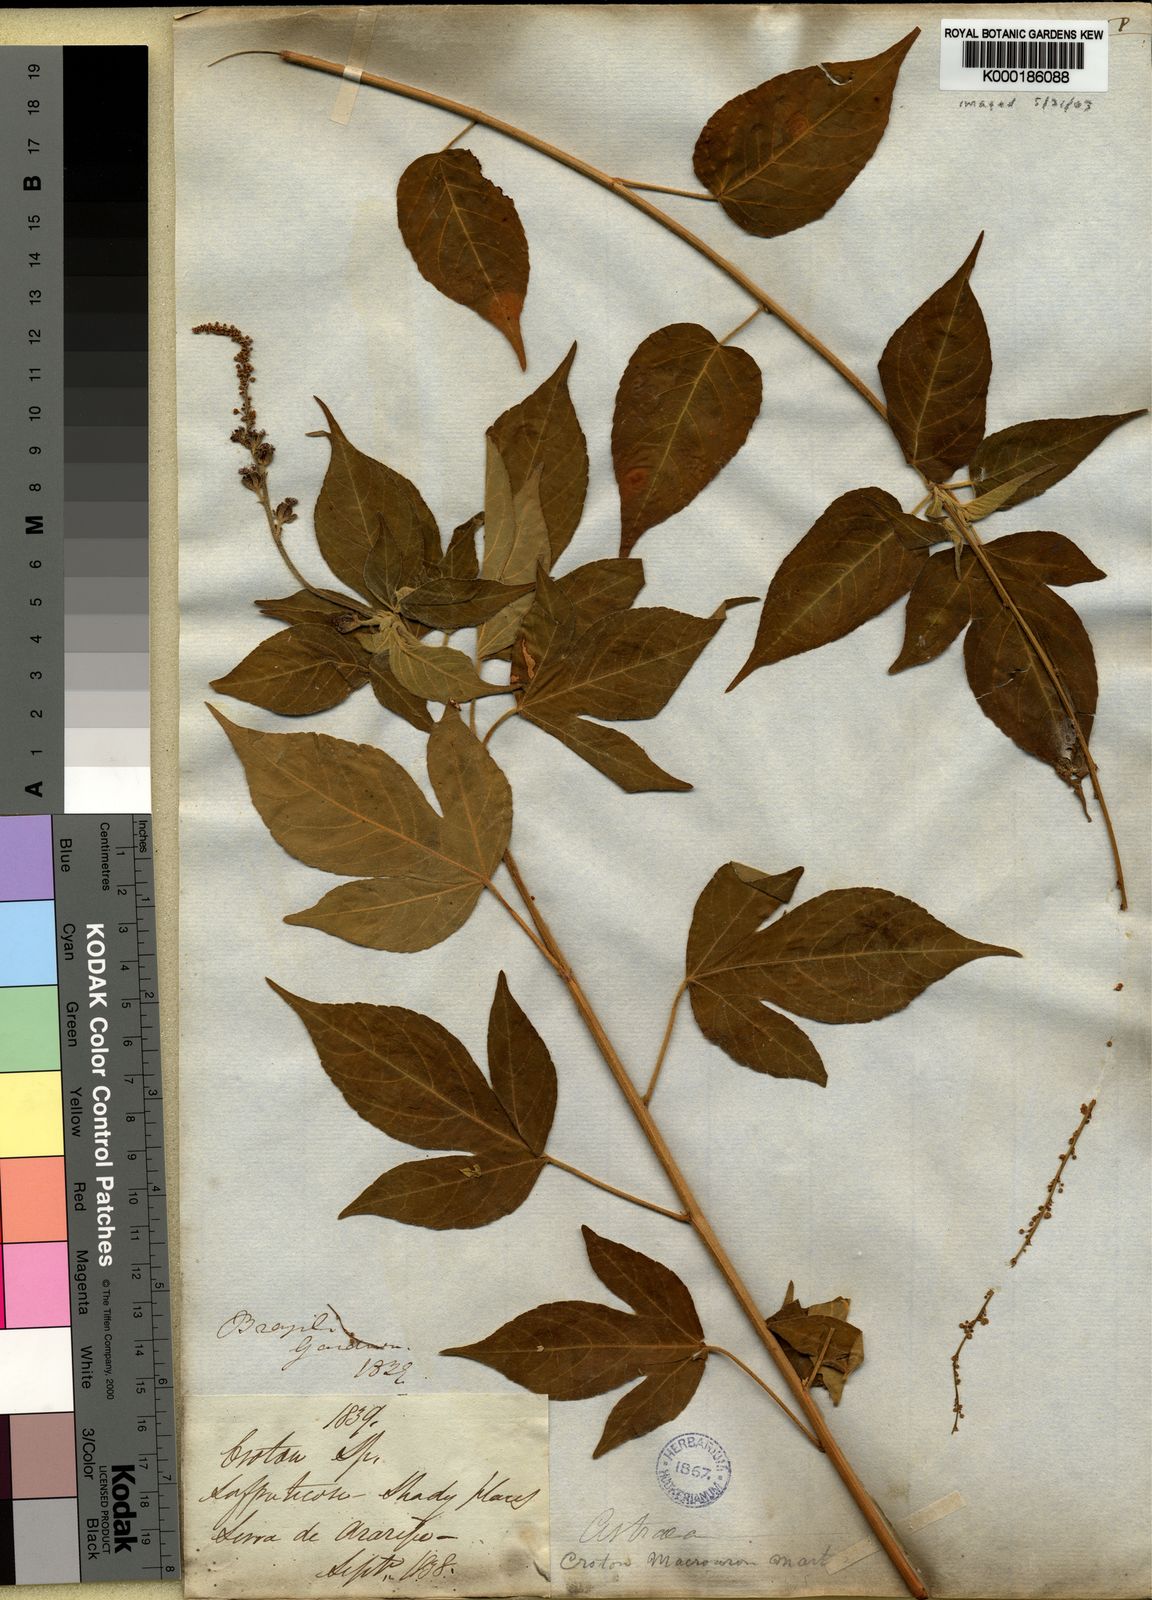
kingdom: Plantae
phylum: Tracheophyta
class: Magnoliopsida
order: Malpighiales
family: Euphorbiaceae
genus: Astraea
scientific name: Astraea
